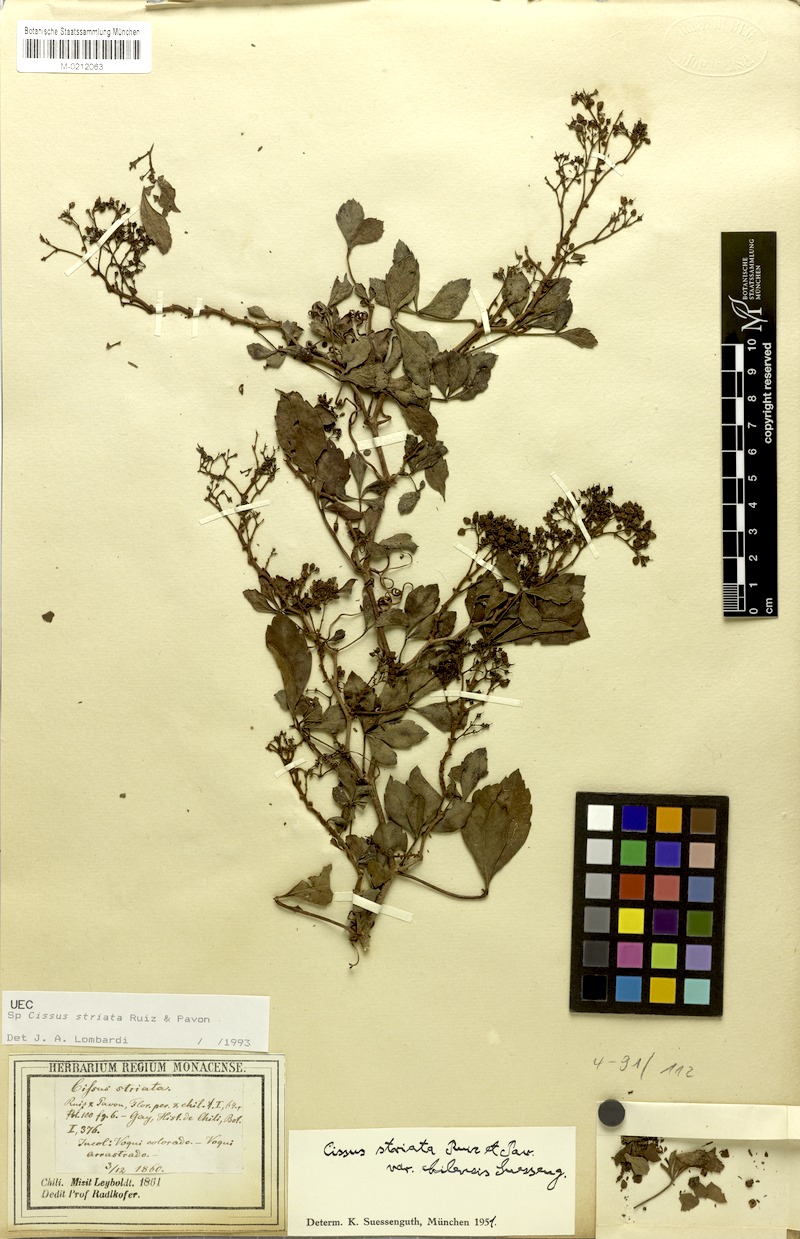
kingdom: Plantae
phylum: Tracheophyta
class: Magnoliopsida
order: Vitales
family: Vitaceae
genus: Clematicissus
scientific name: Clematicissus striata
